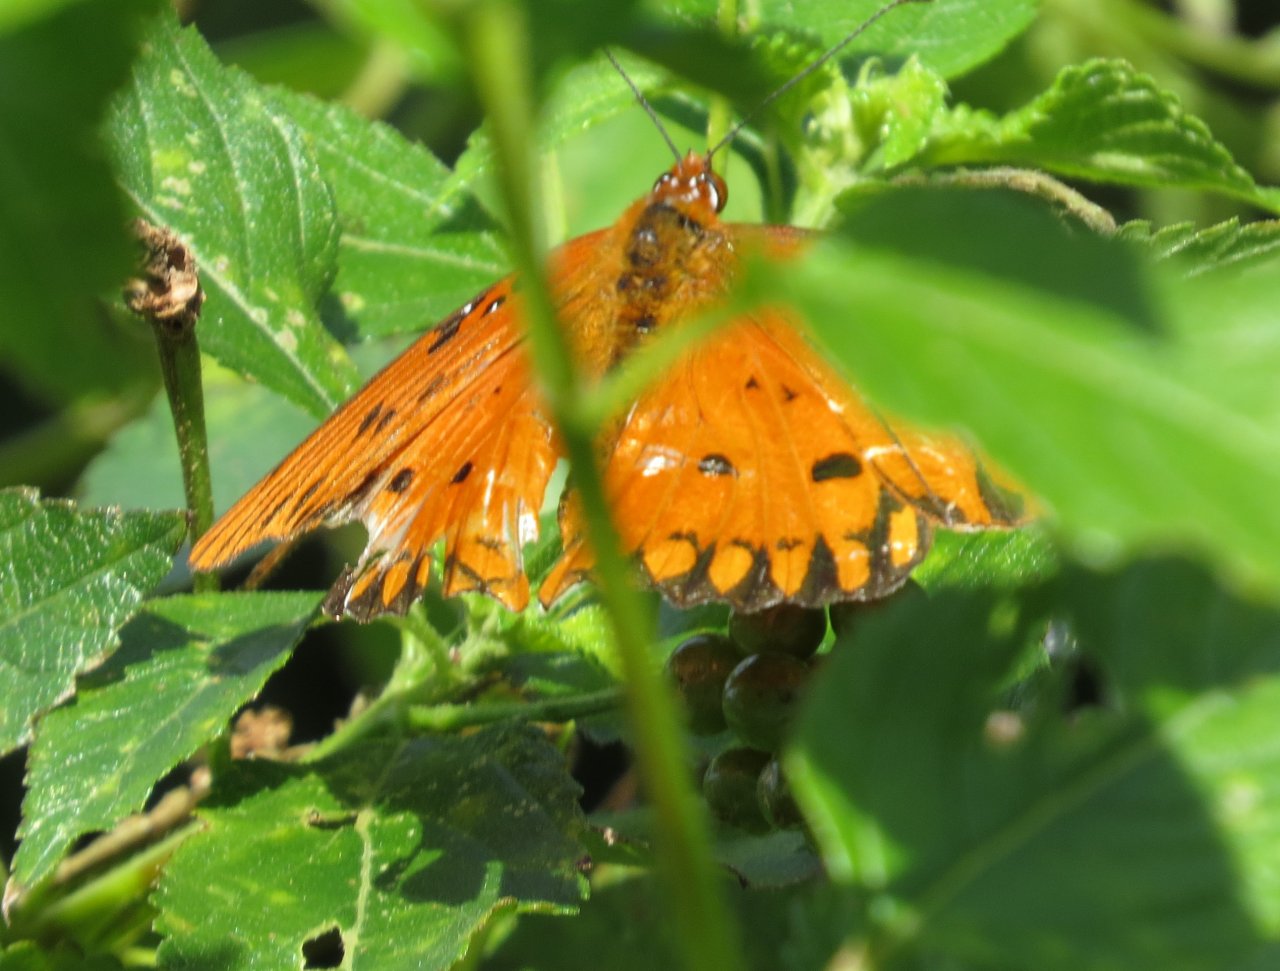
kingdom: Animalia
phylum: Arthropoda
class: Insecta
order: Lepidoptera
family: Nymphalidae
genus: Dione
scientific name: Dione vanillae
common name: Gulf Fritillary
